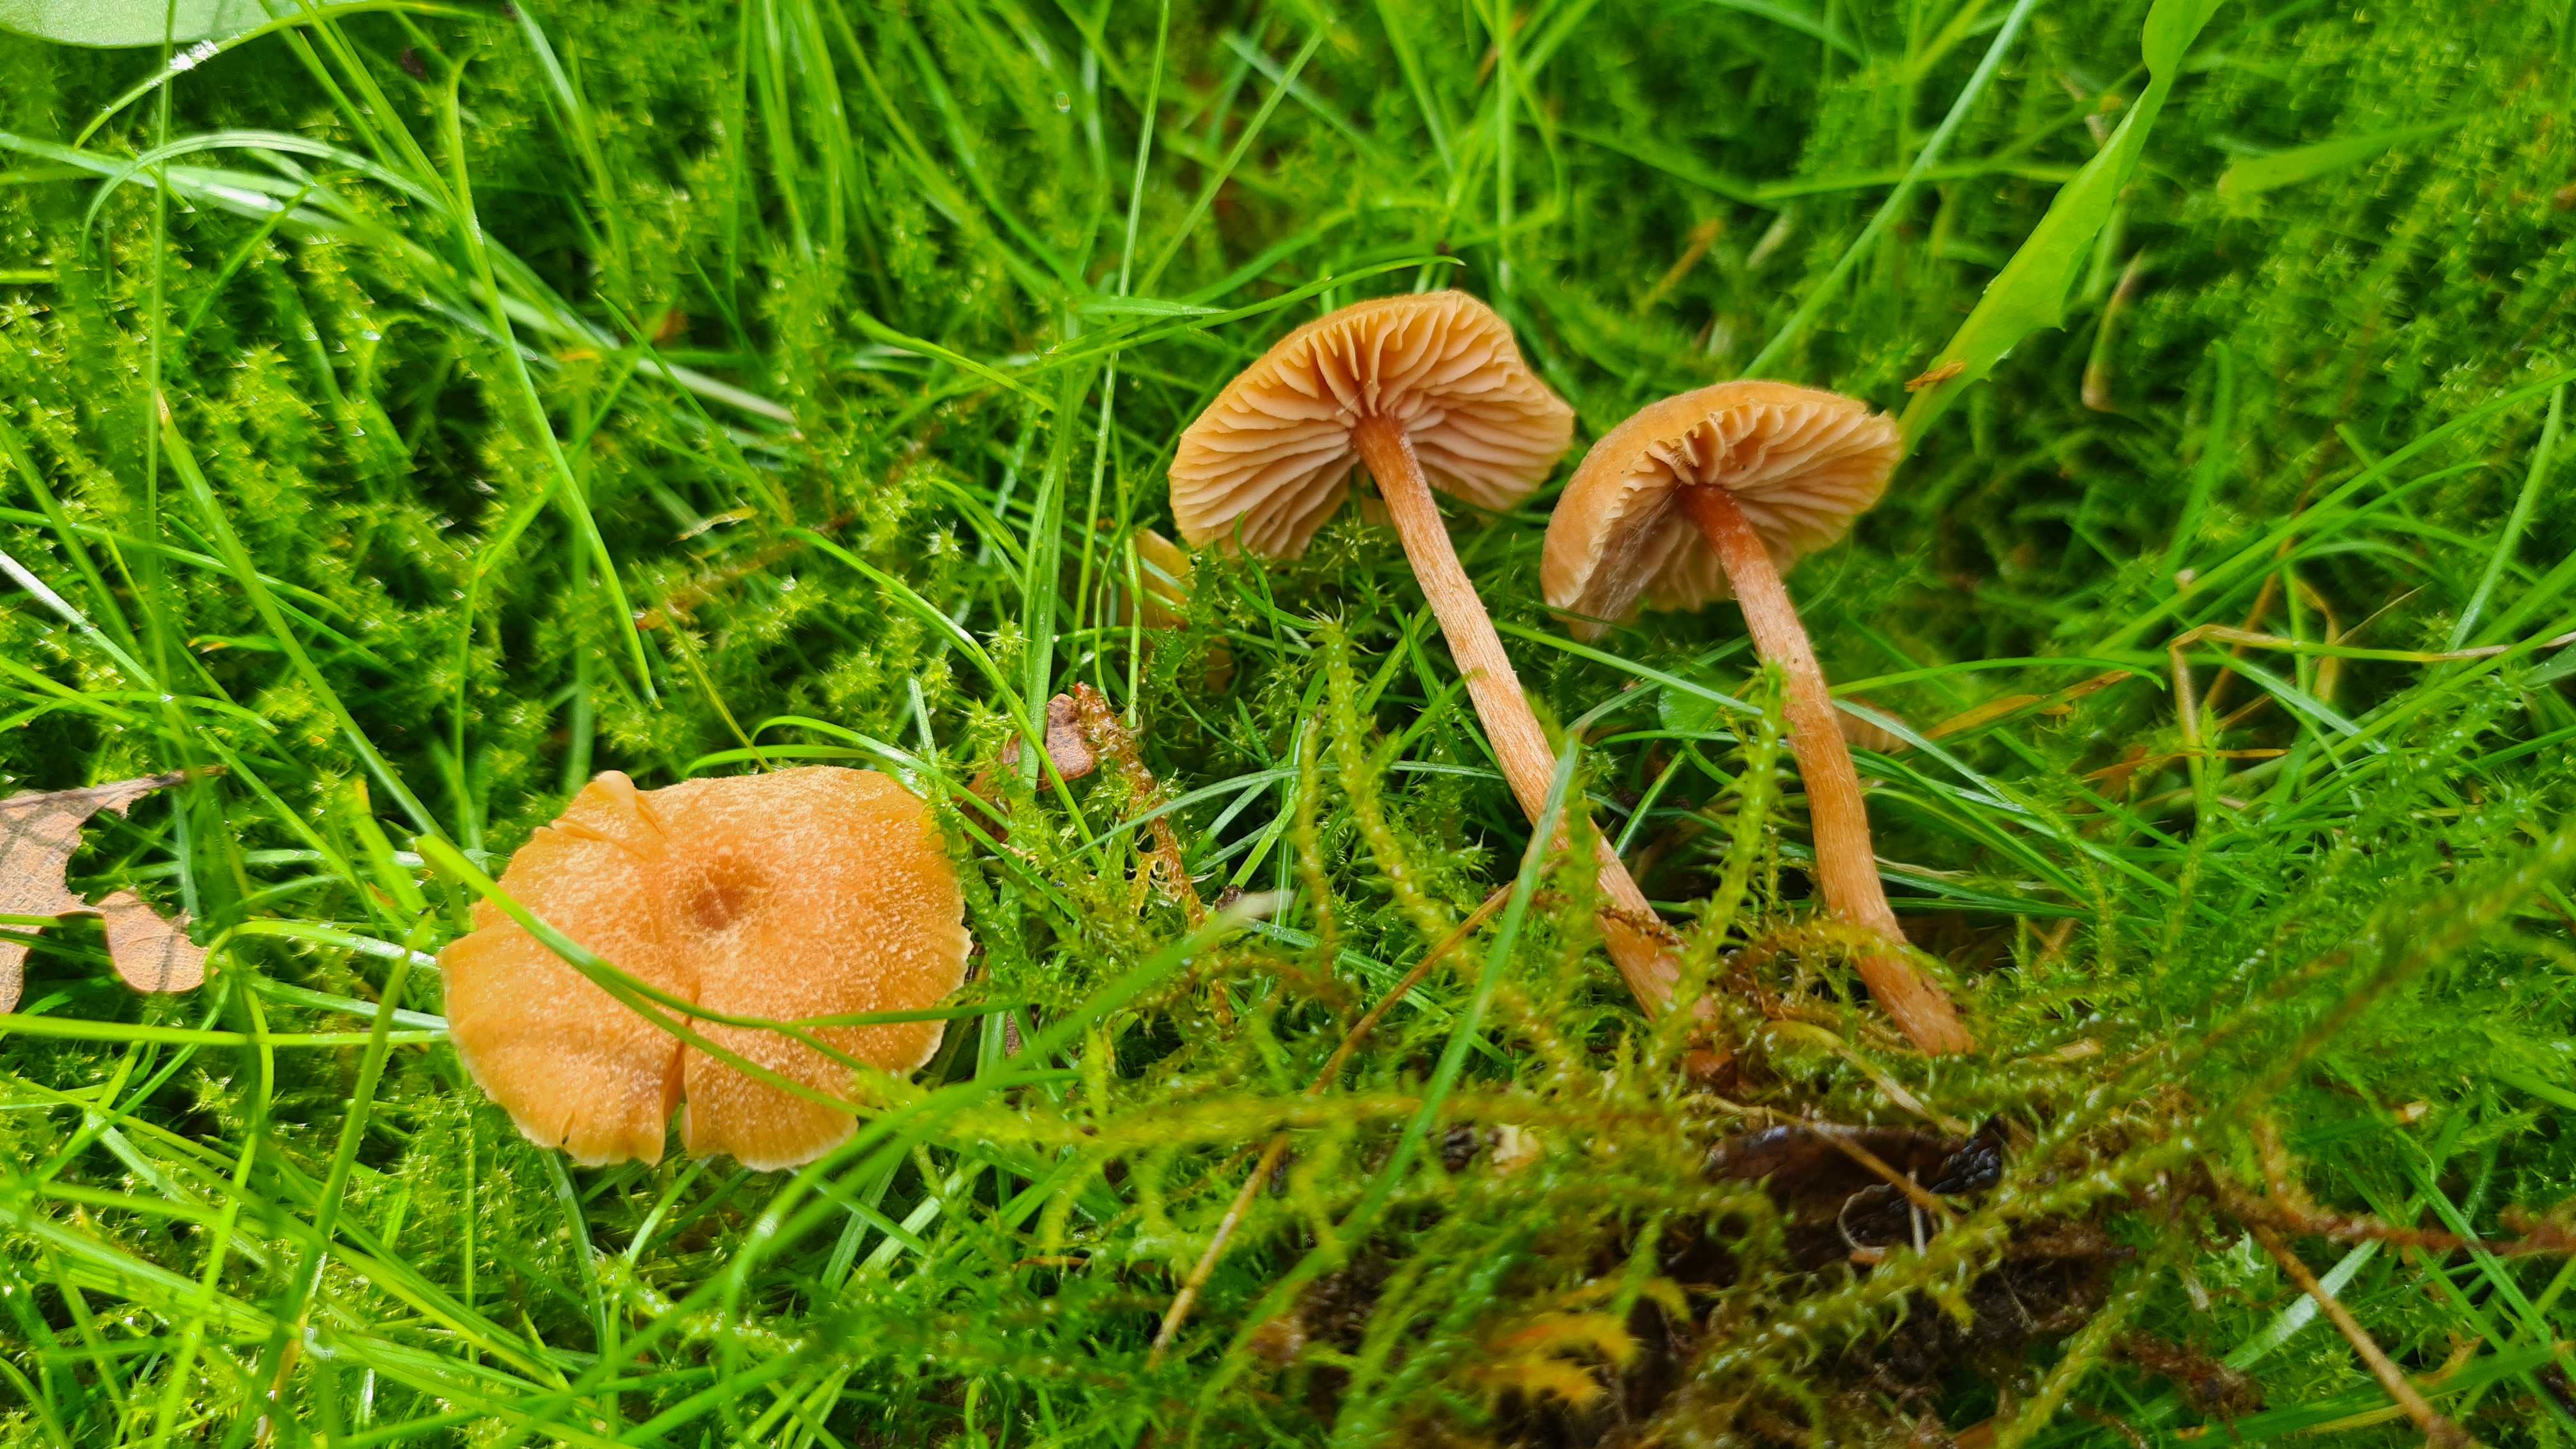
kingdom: Fungi
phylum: Basidiomycota
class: Agaricomycetes
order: Agaricales
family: Hydnangiaceae
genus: Laccaria
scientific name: Laccaria laccata
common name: rød ametysthat
